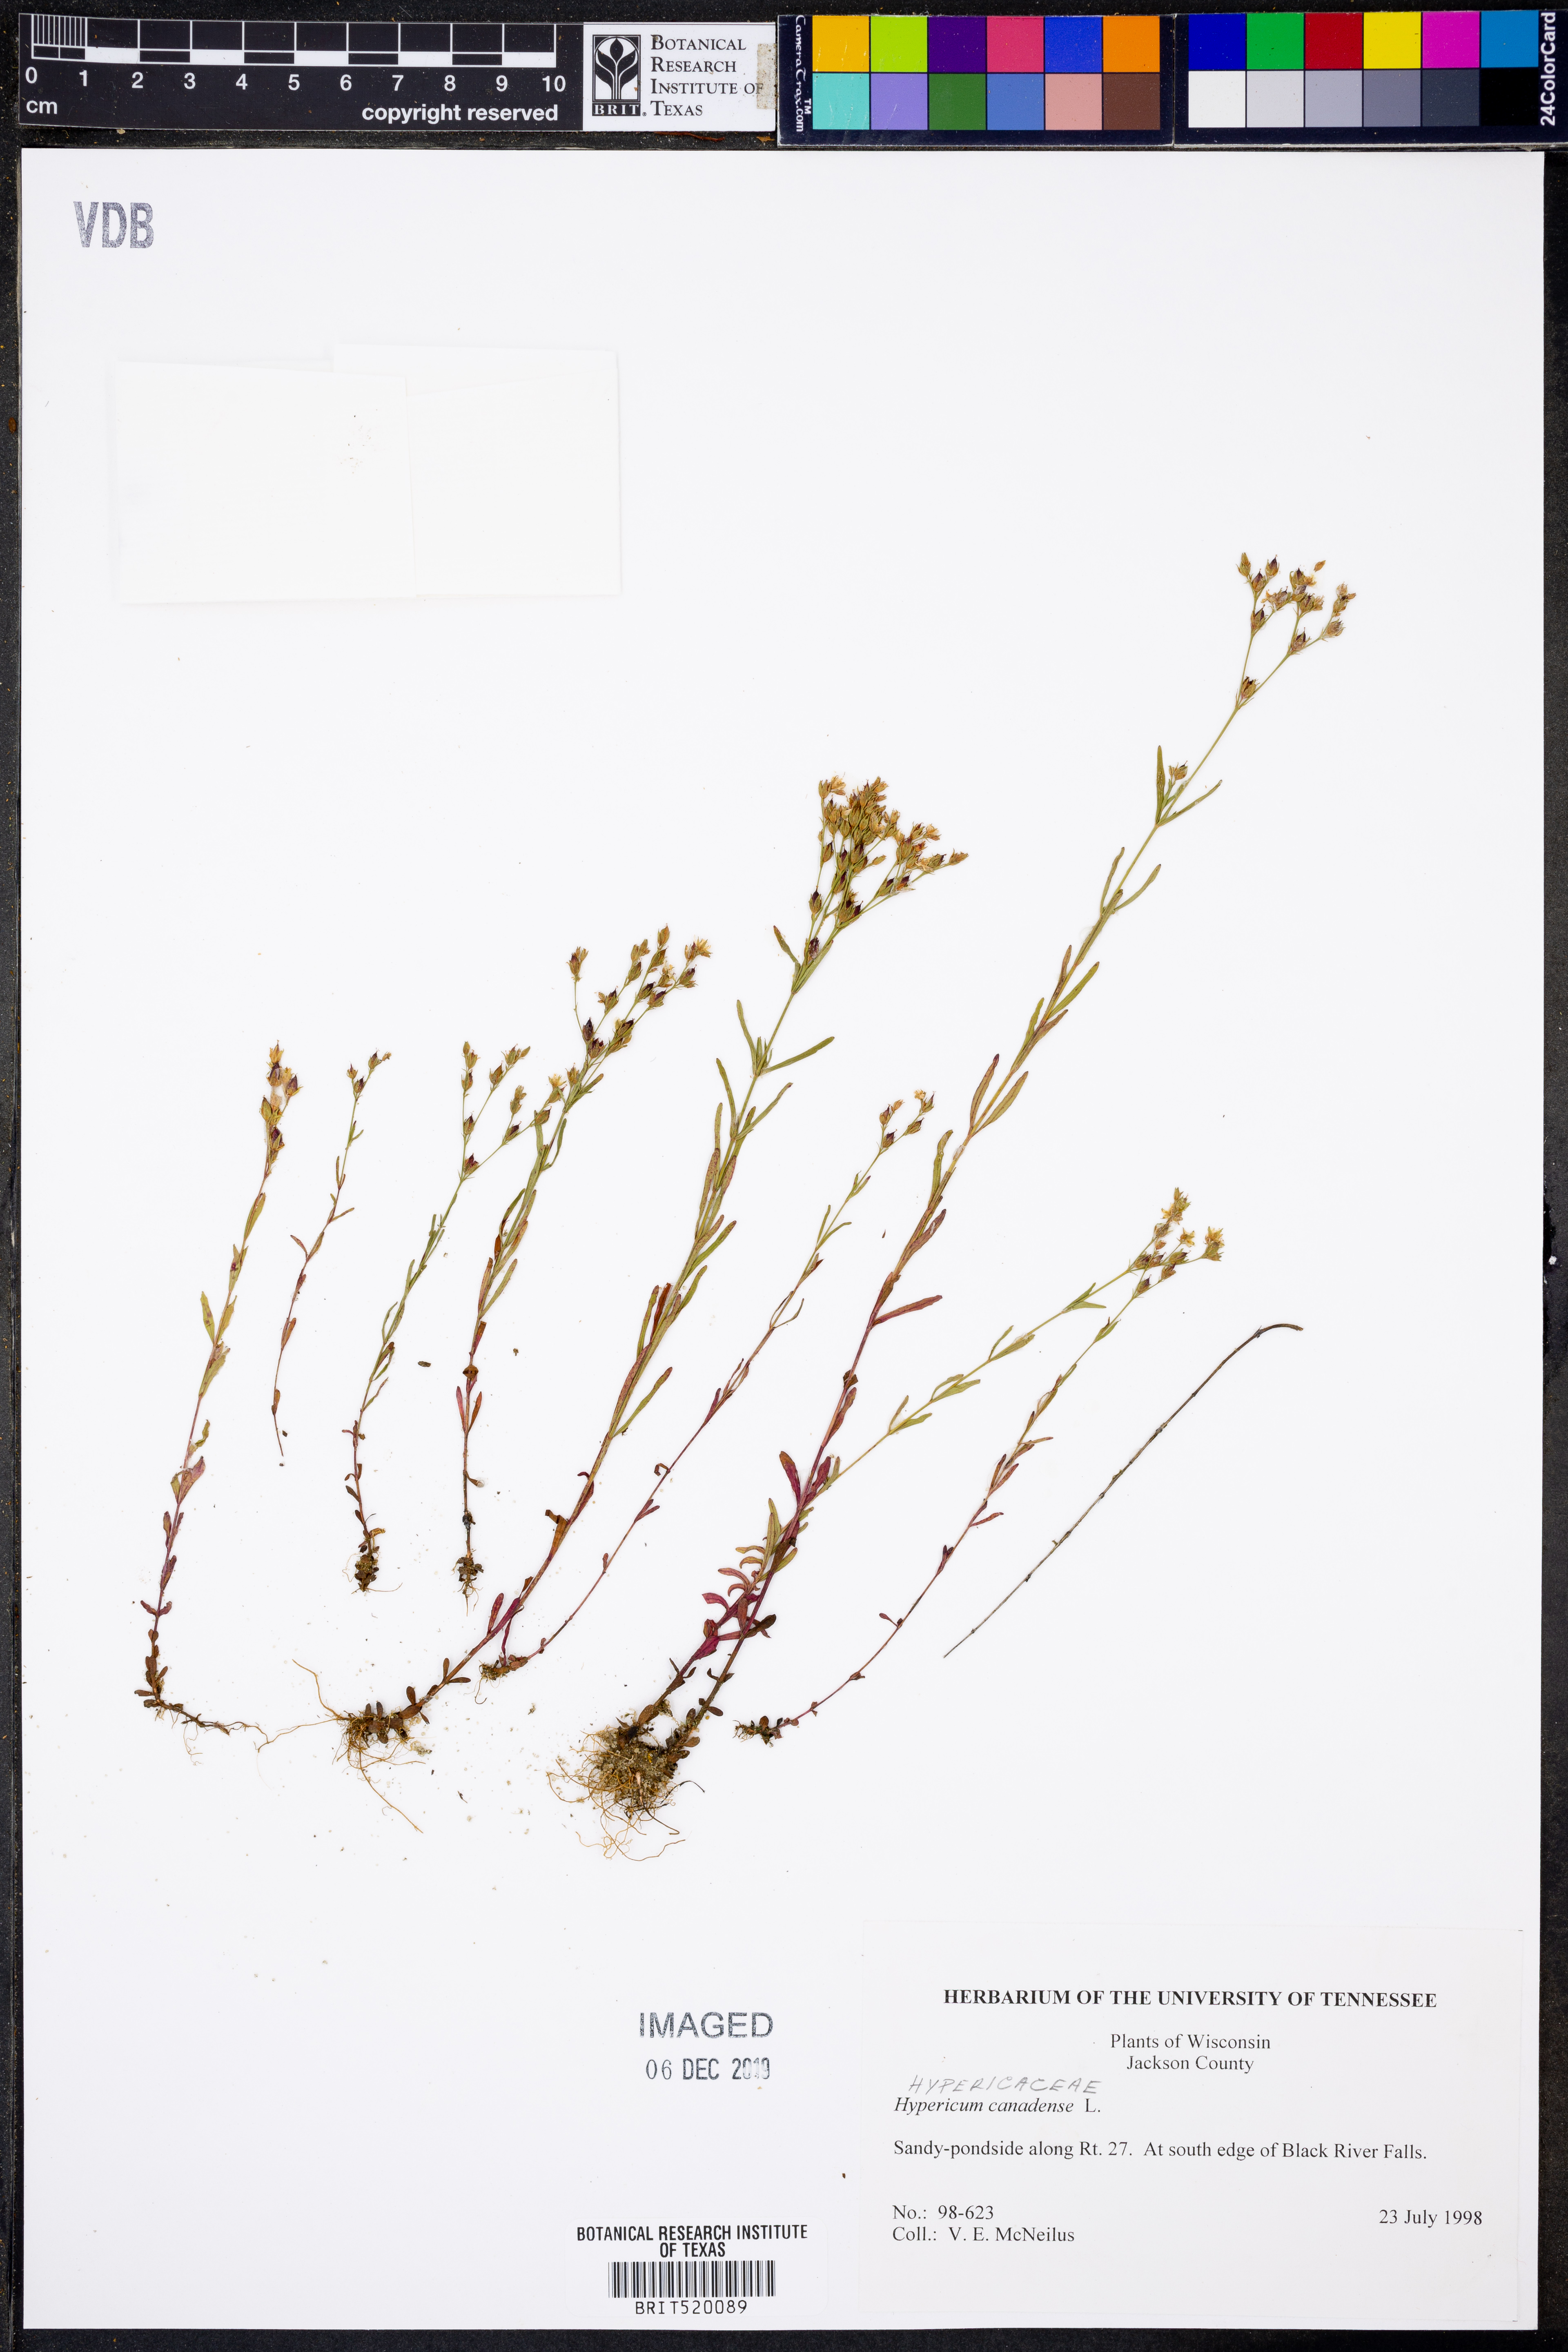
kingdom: Plantae
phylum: Tracheophyta
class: Magnoliopsida
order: Malpighiales
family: Hypericaceae
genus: Hypericum
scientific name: Hypericum canadense
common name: Irish st. john's-wort
